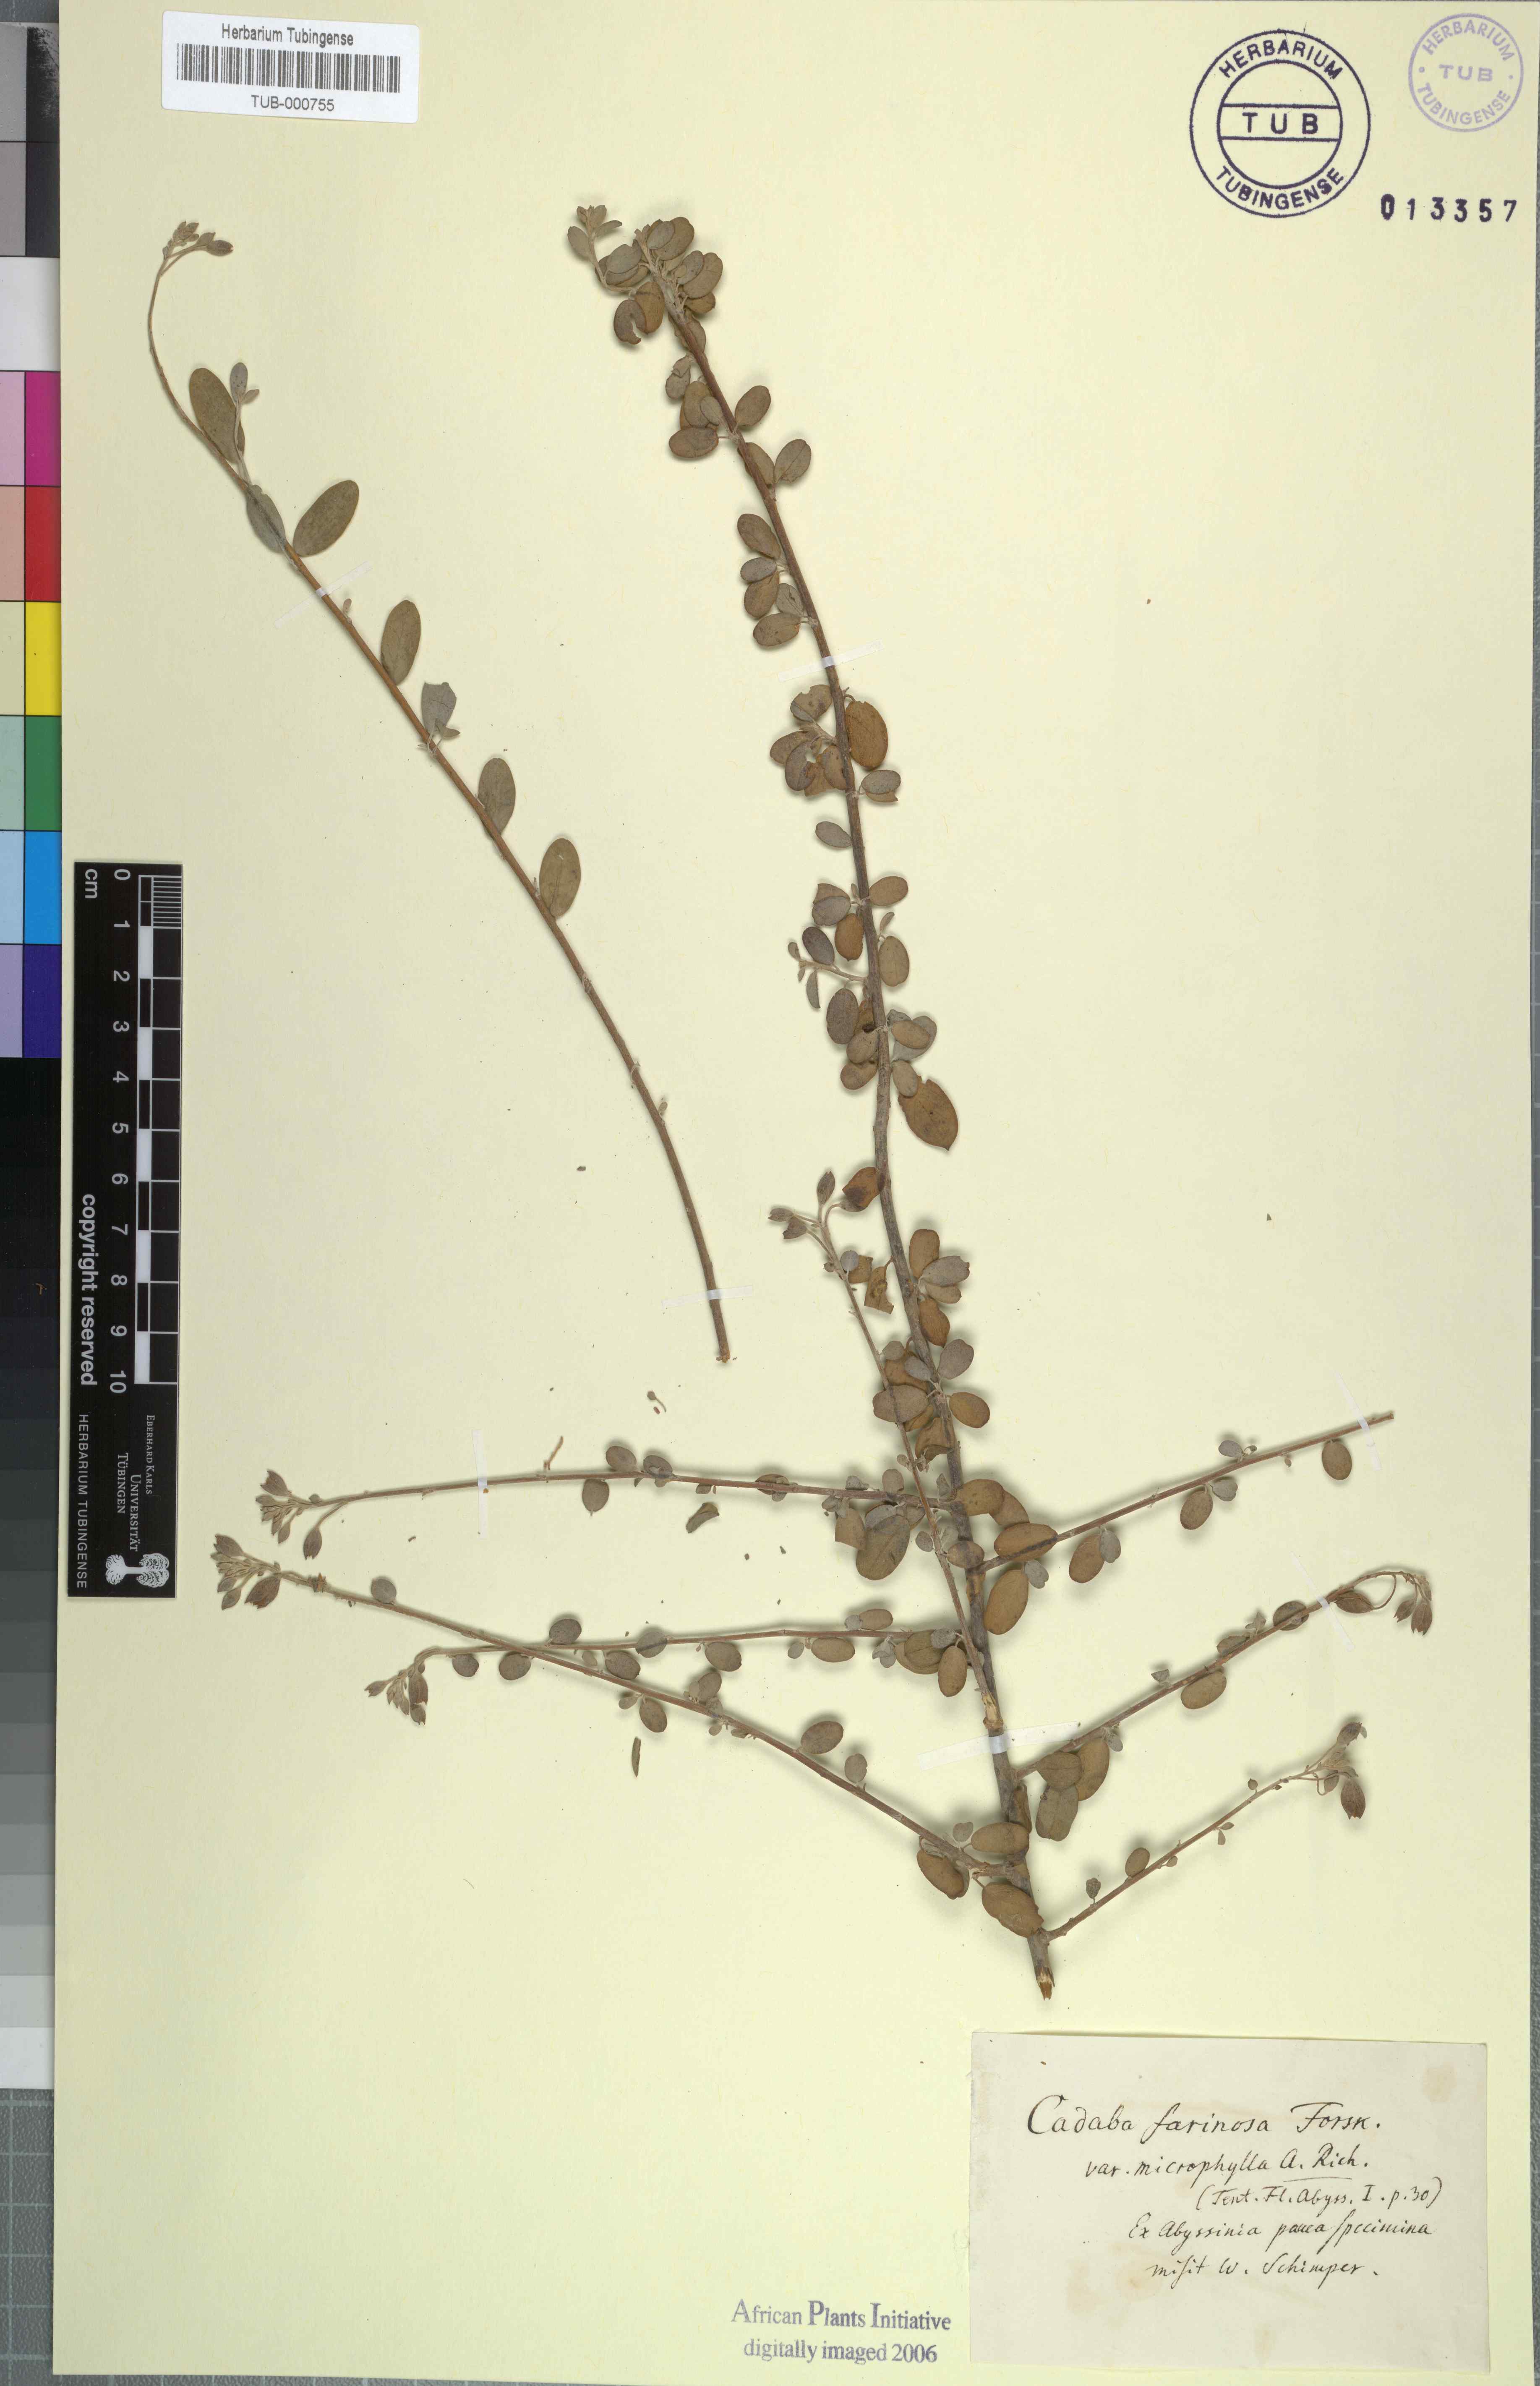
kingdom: Plantae
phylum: Tracheophyta
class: Magnoliopsida
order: Brassicales
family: Capparaceae
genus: Cadaba
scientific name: Cadaba farinosa
